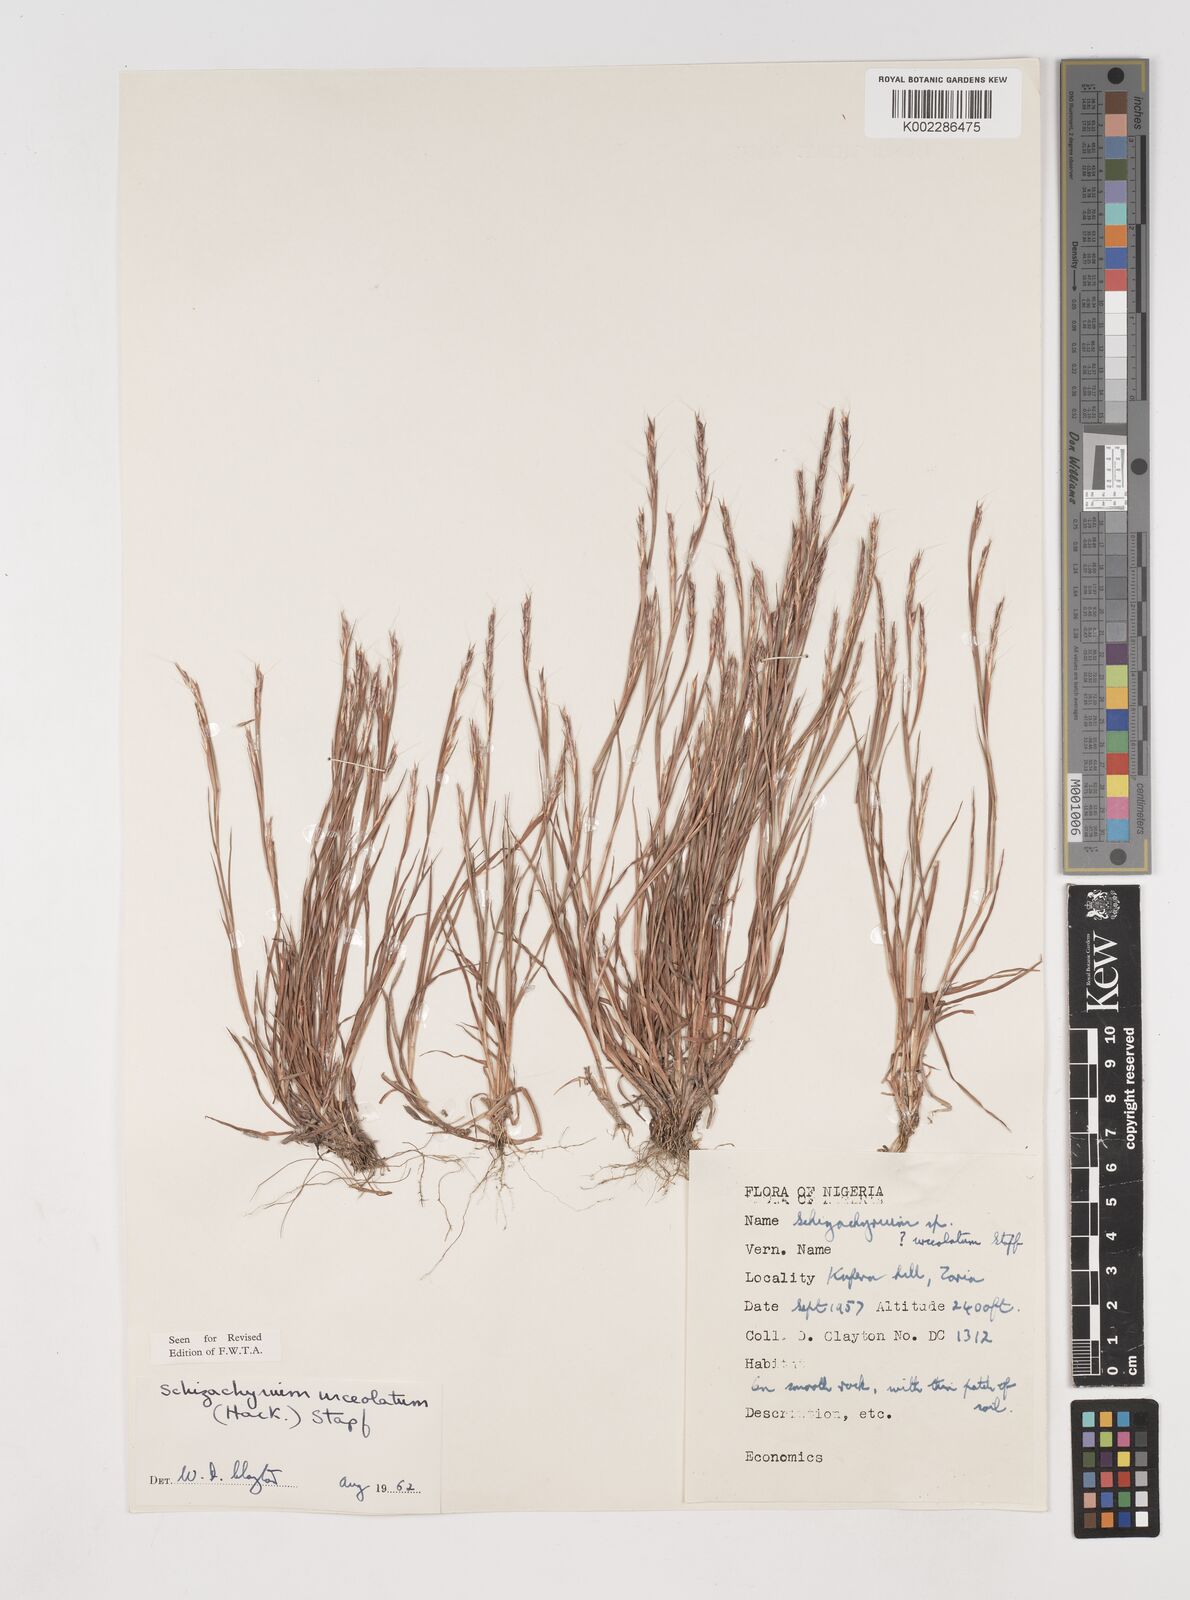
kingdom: Plantae
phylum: Tracheophyta
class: Liliopsida
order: Poales
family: Poaceae
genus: Schizachyrium
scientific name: Schizachyrium urceolatum
